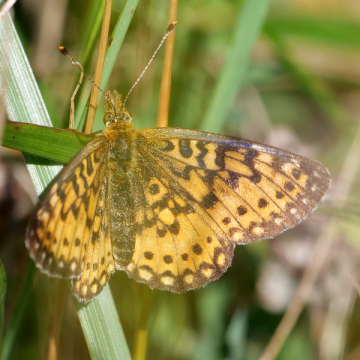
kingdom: Animalia
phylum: Arthropoda
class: Insecta
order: Lepidoptera
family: Nymphalidae
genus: Boloria
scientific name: Boloria selene
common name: Silver-bordered Fritillary
